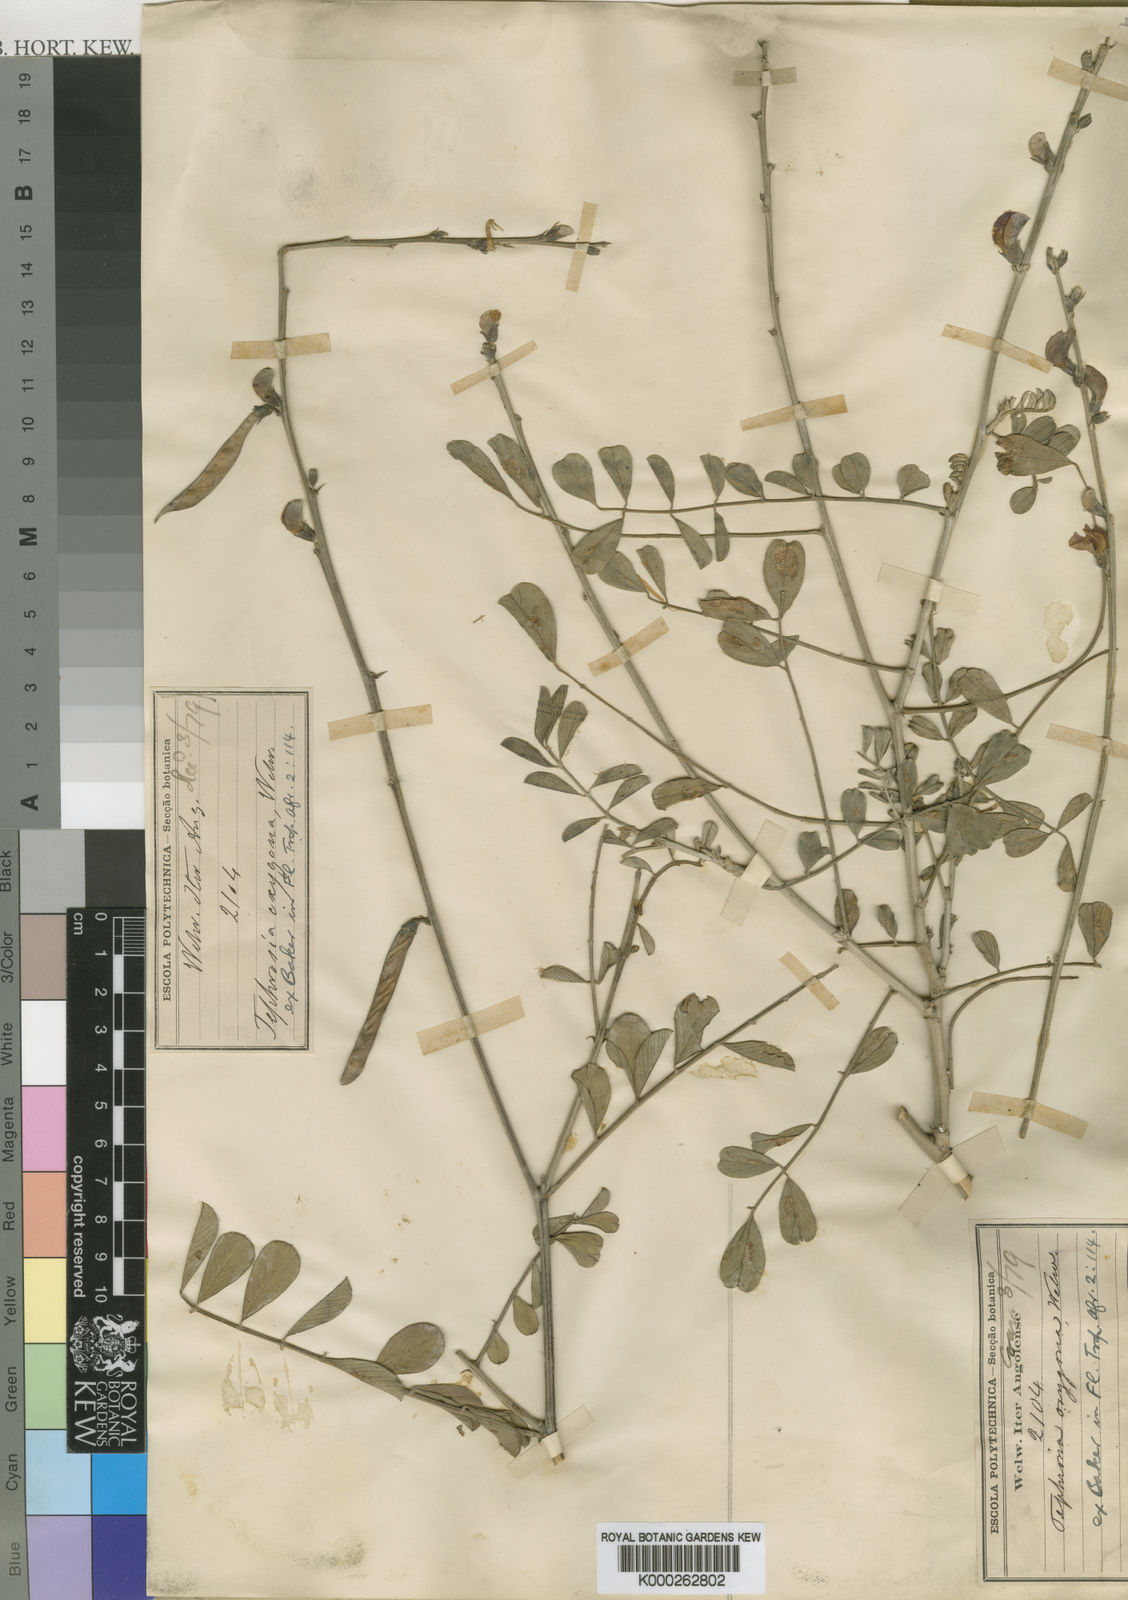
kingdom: Plantae
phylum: Tracheophyta
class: Magnoliopsida
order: Fabales
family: Fabaceae
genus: Tephrosia
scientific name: Tephrosia oxygona
